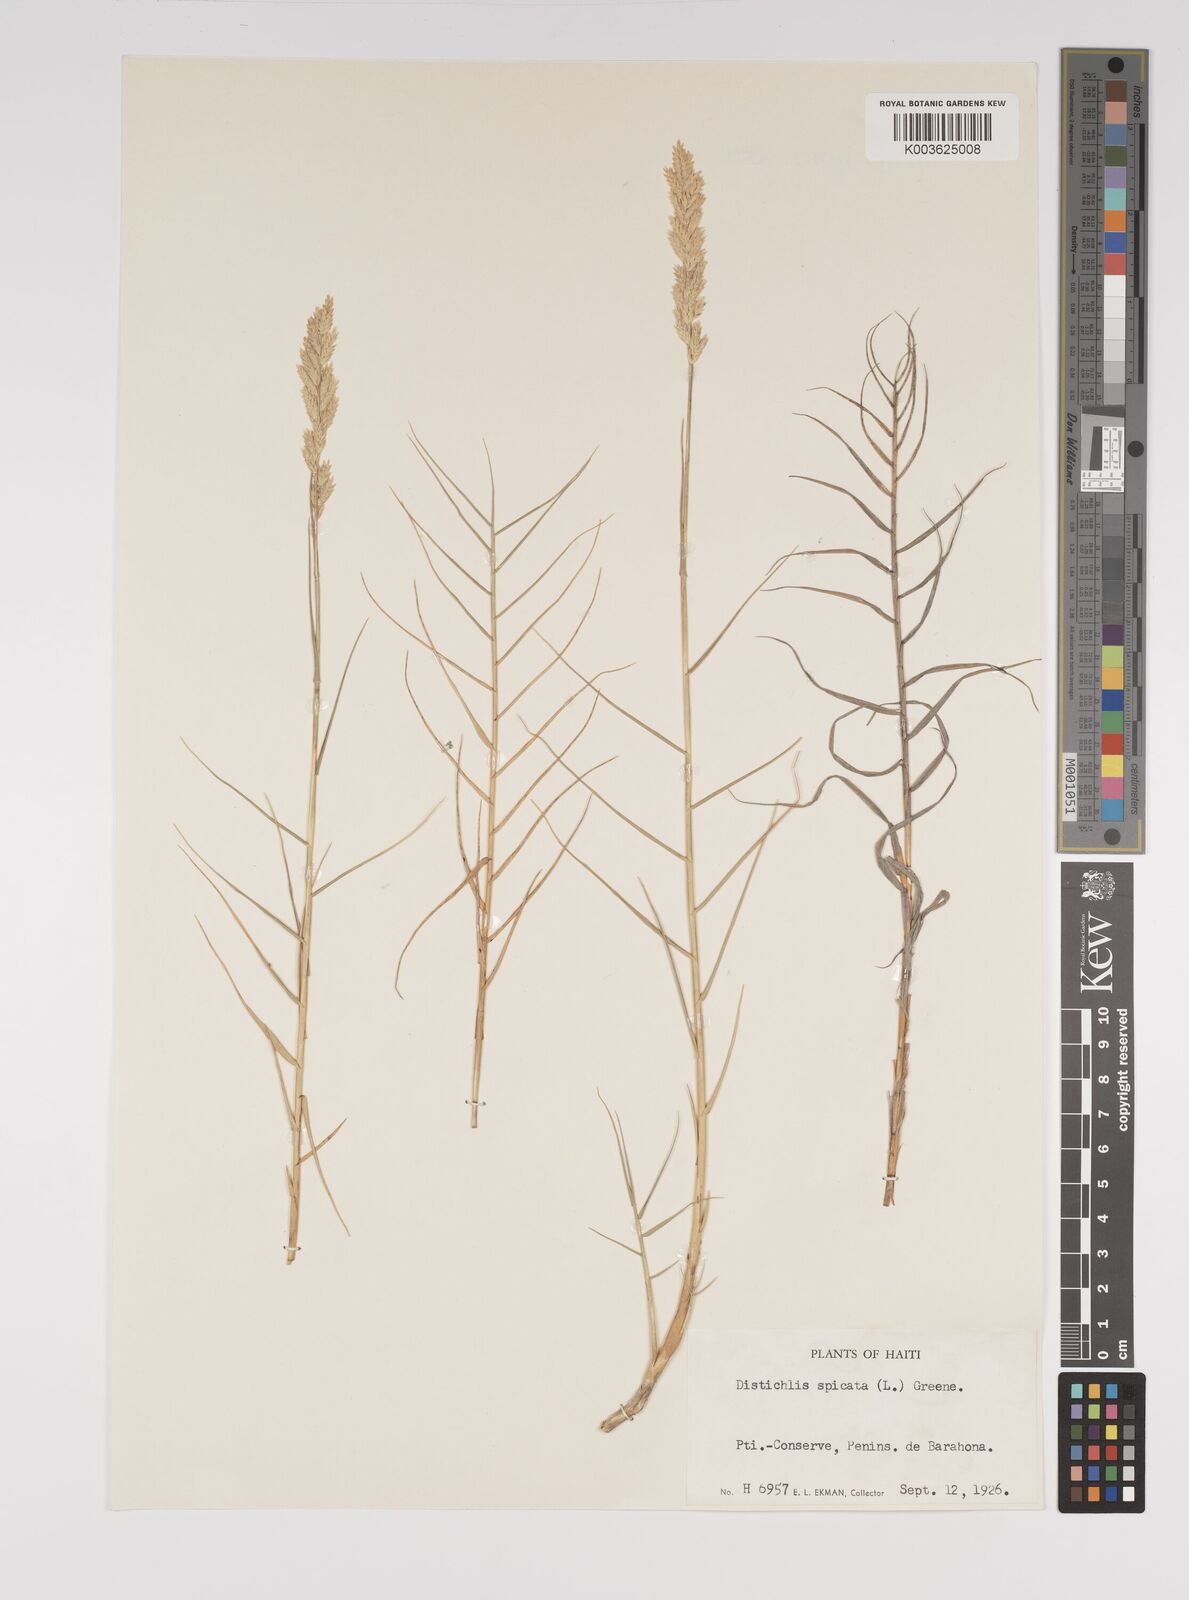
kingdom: Plantae
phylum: Tracheophyta
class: Liliopsida
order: Poales
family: Poaceae
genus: Distichlis
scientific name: Distichlis spicata
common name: Saltgrass
